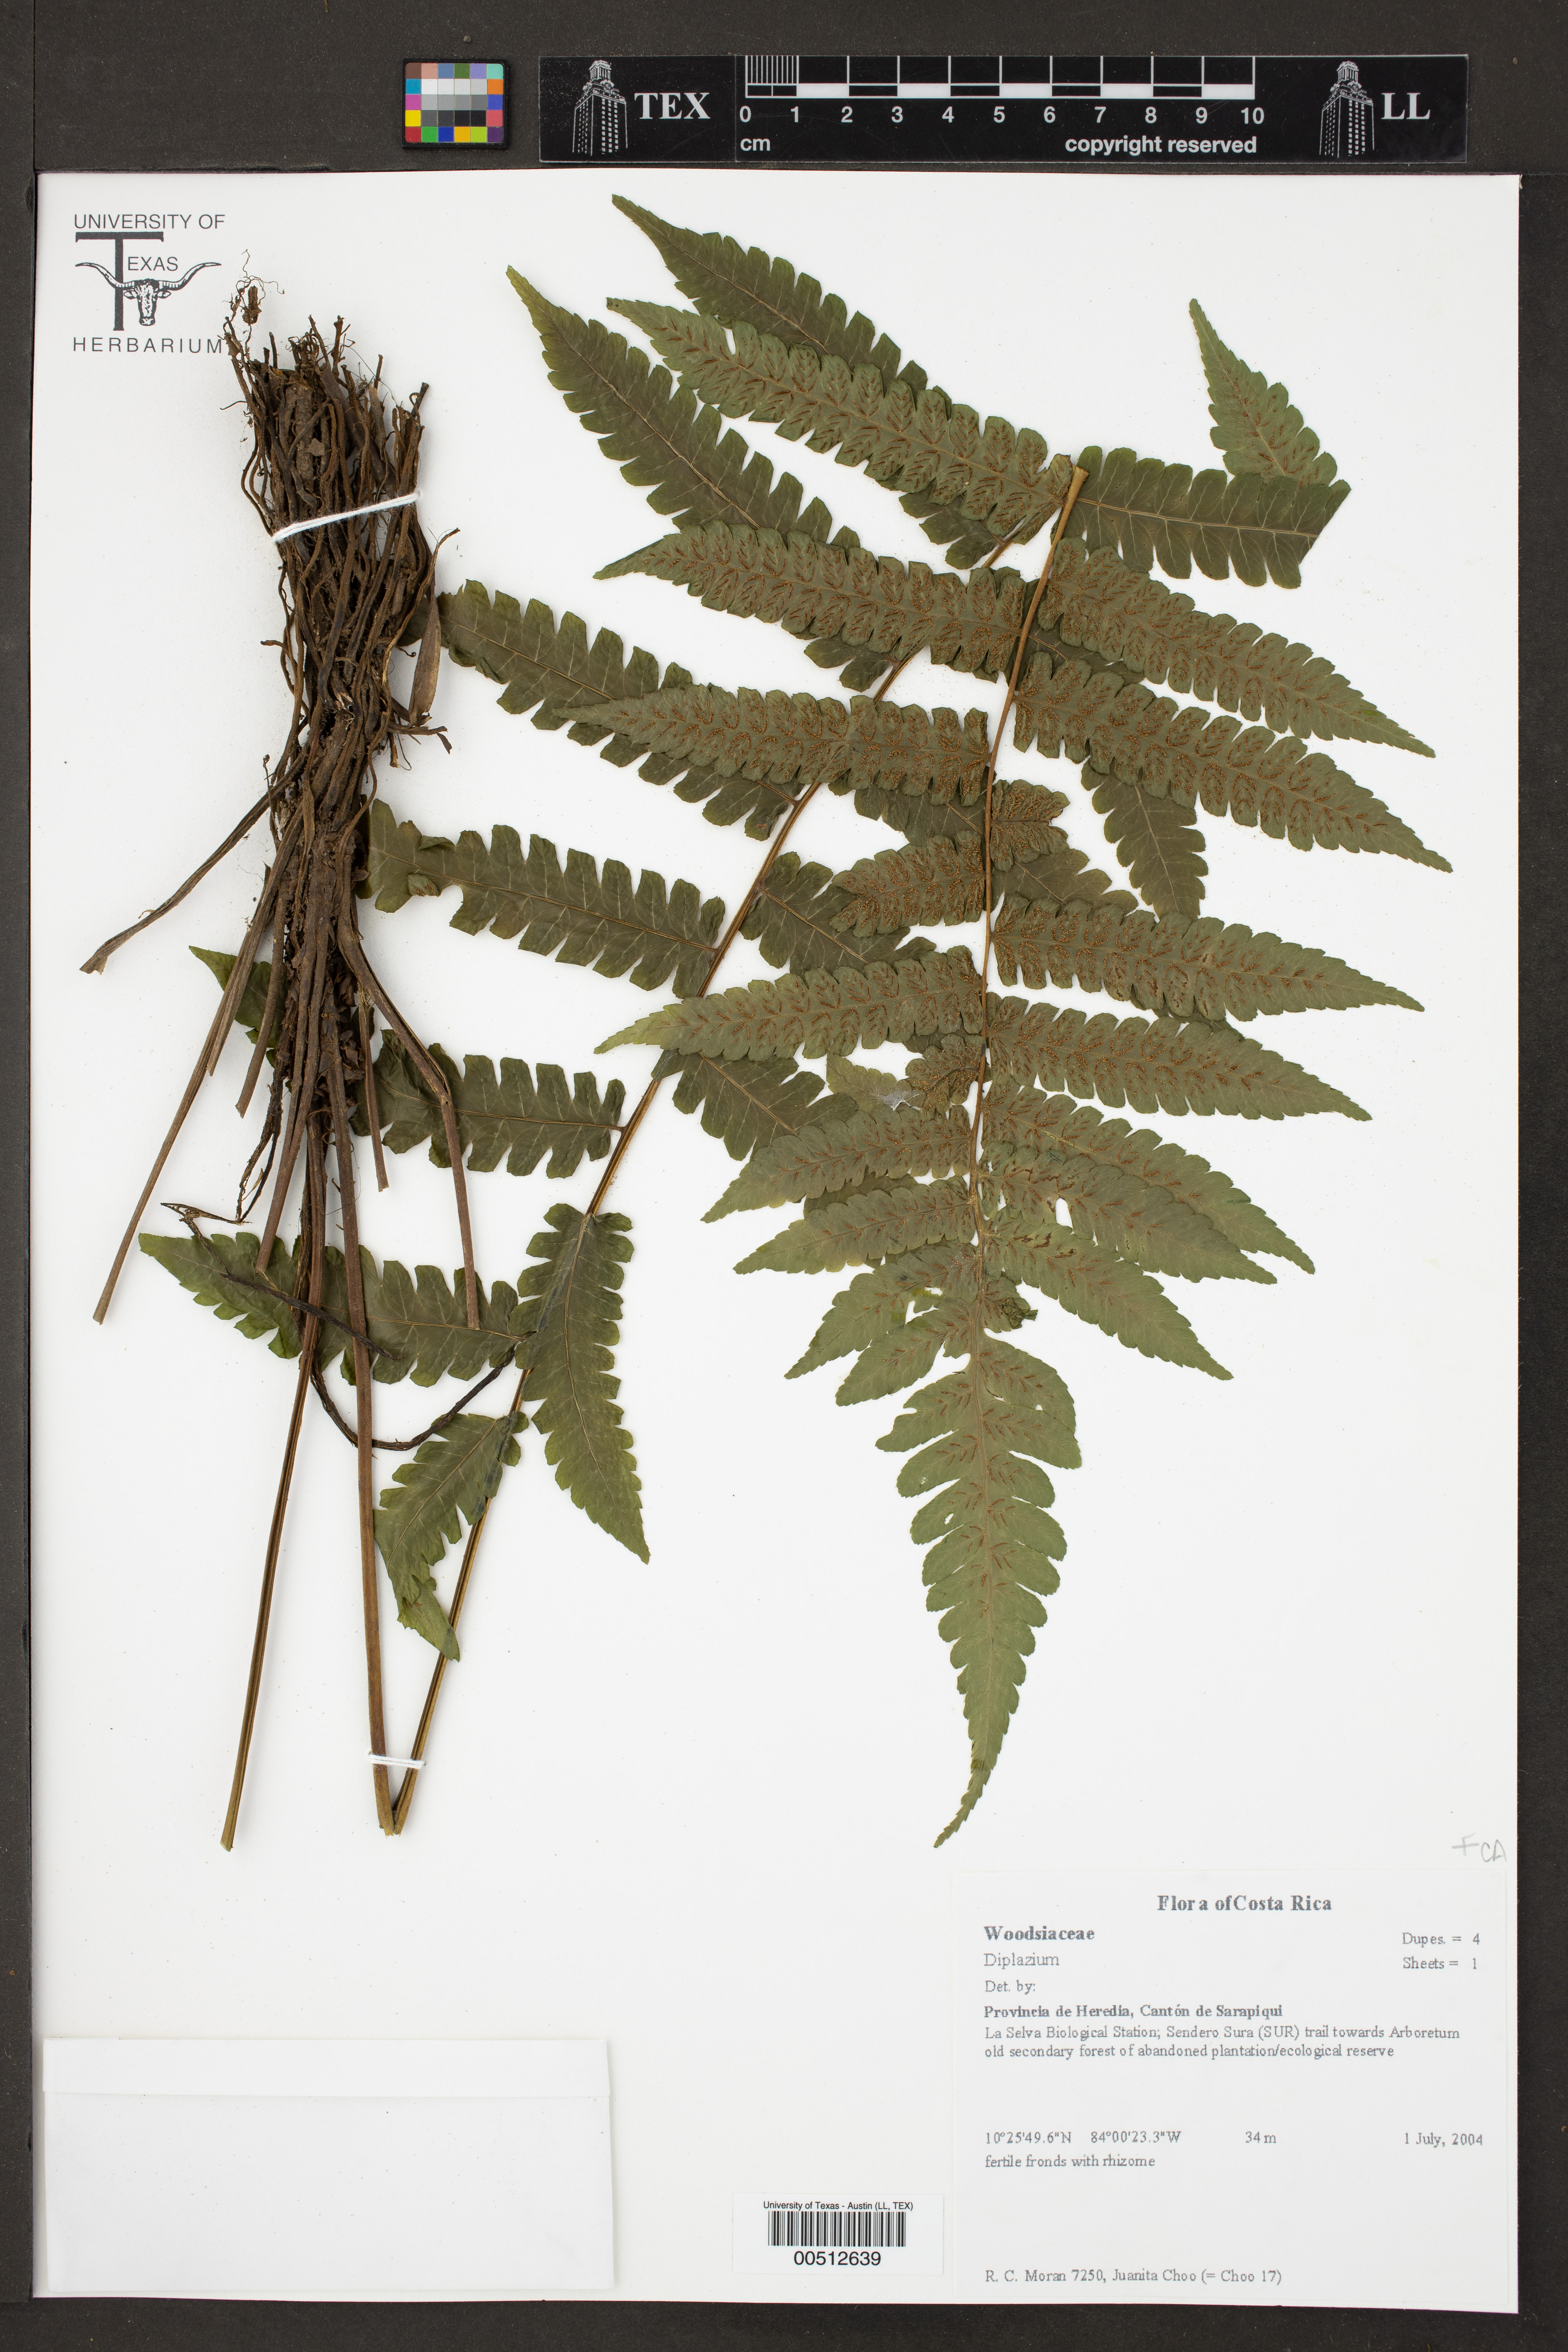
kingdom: Plantae
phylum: Tracheophyta
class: Polypodiopsida
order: Polypodiales
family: Athyriaceae
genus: Diplazium
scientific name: Diplazium
